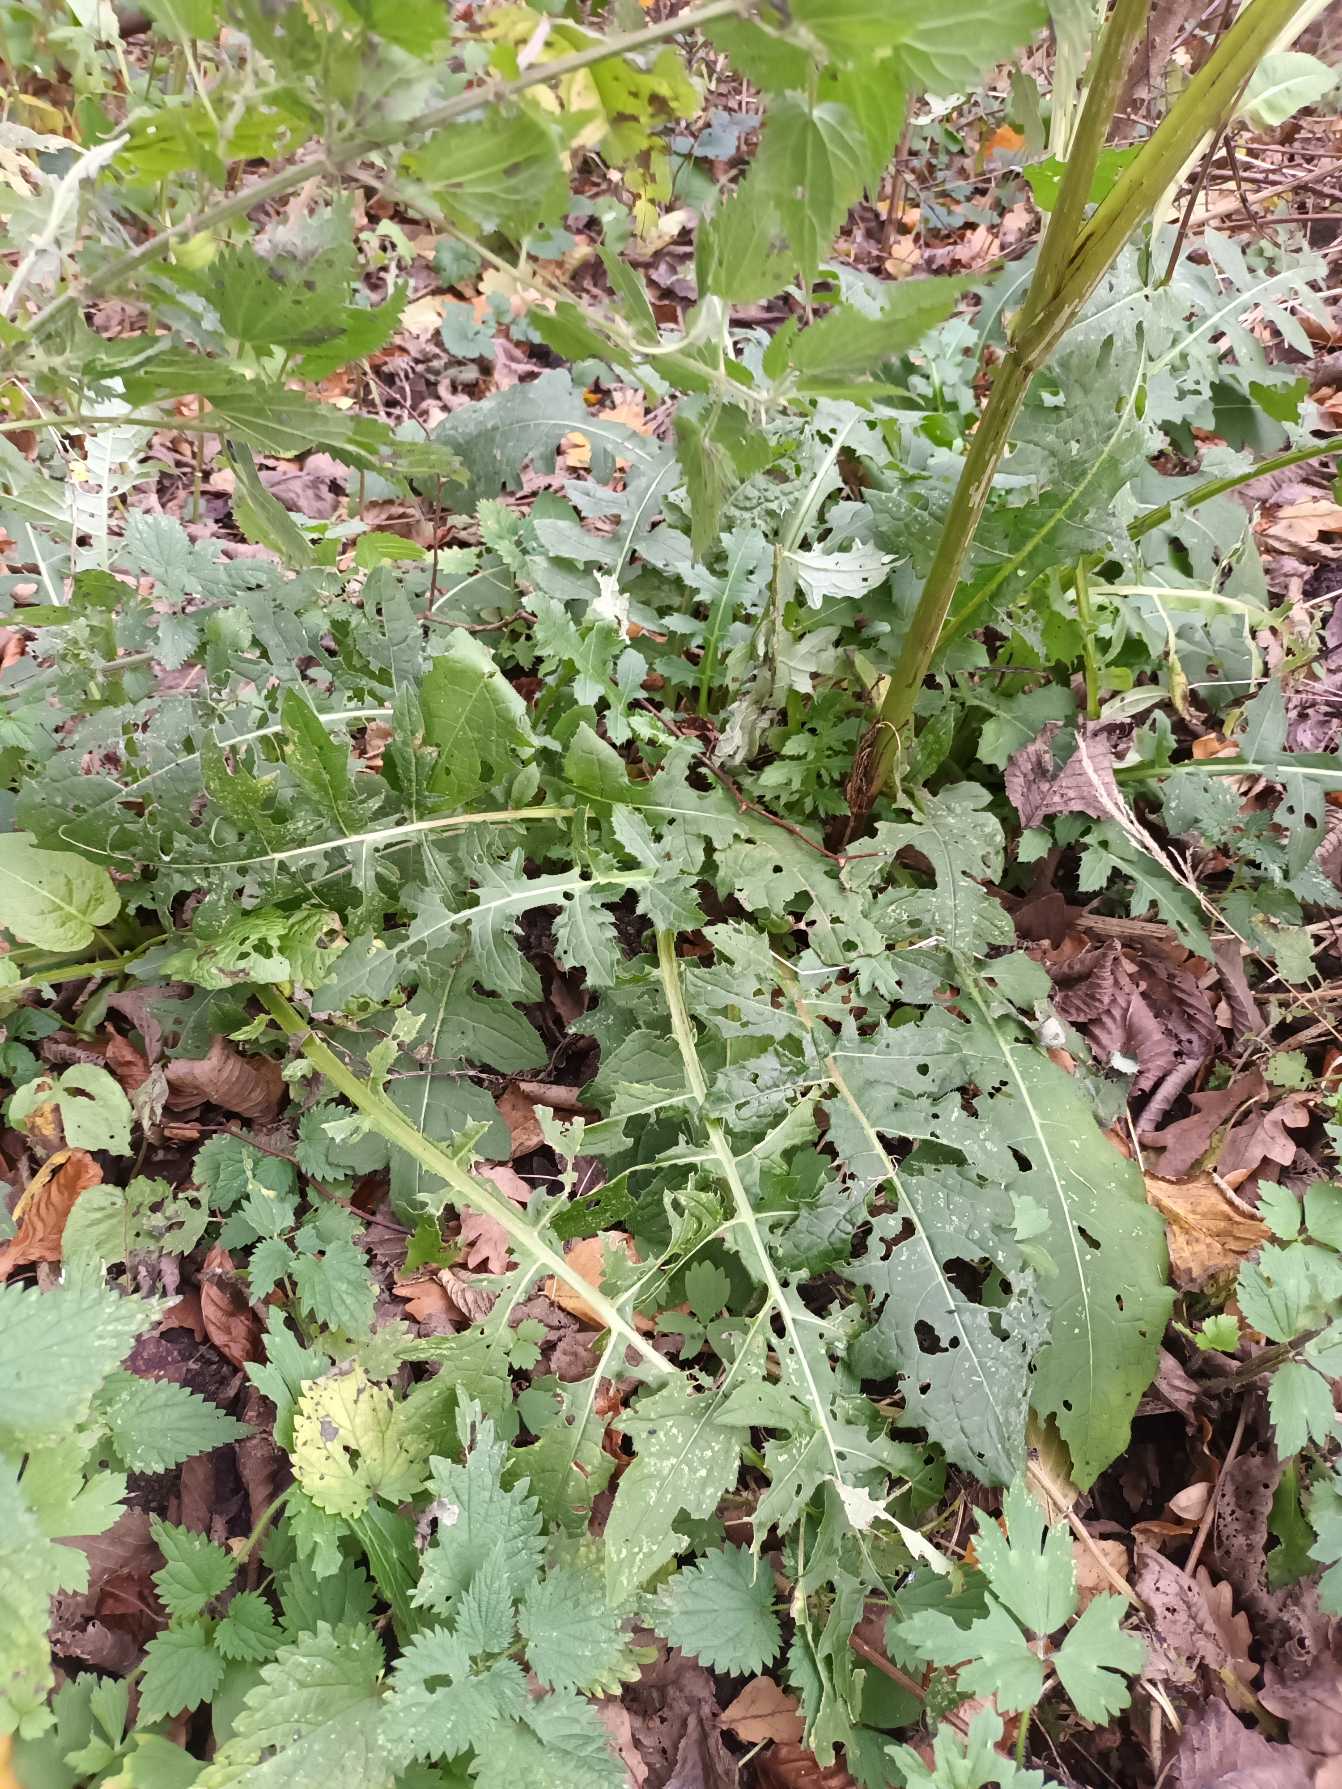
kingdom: Plantae
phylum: Tracheophyta
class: Magnoliopsida
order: Asterales
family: Asteraceae
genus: Cirsium
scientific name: Cirsium oleraceum
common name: Kål-tidsel
